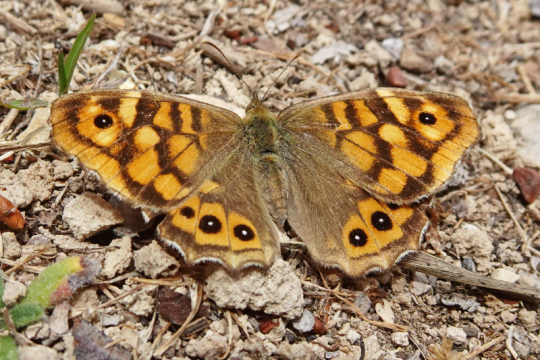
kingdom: Animalia
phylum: Arthropoda
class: Insecta
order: Lepidoptera
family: Nymphalidae
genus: Pararge
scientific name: Pararge aegeria
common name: Speckled Wood Butterfly
